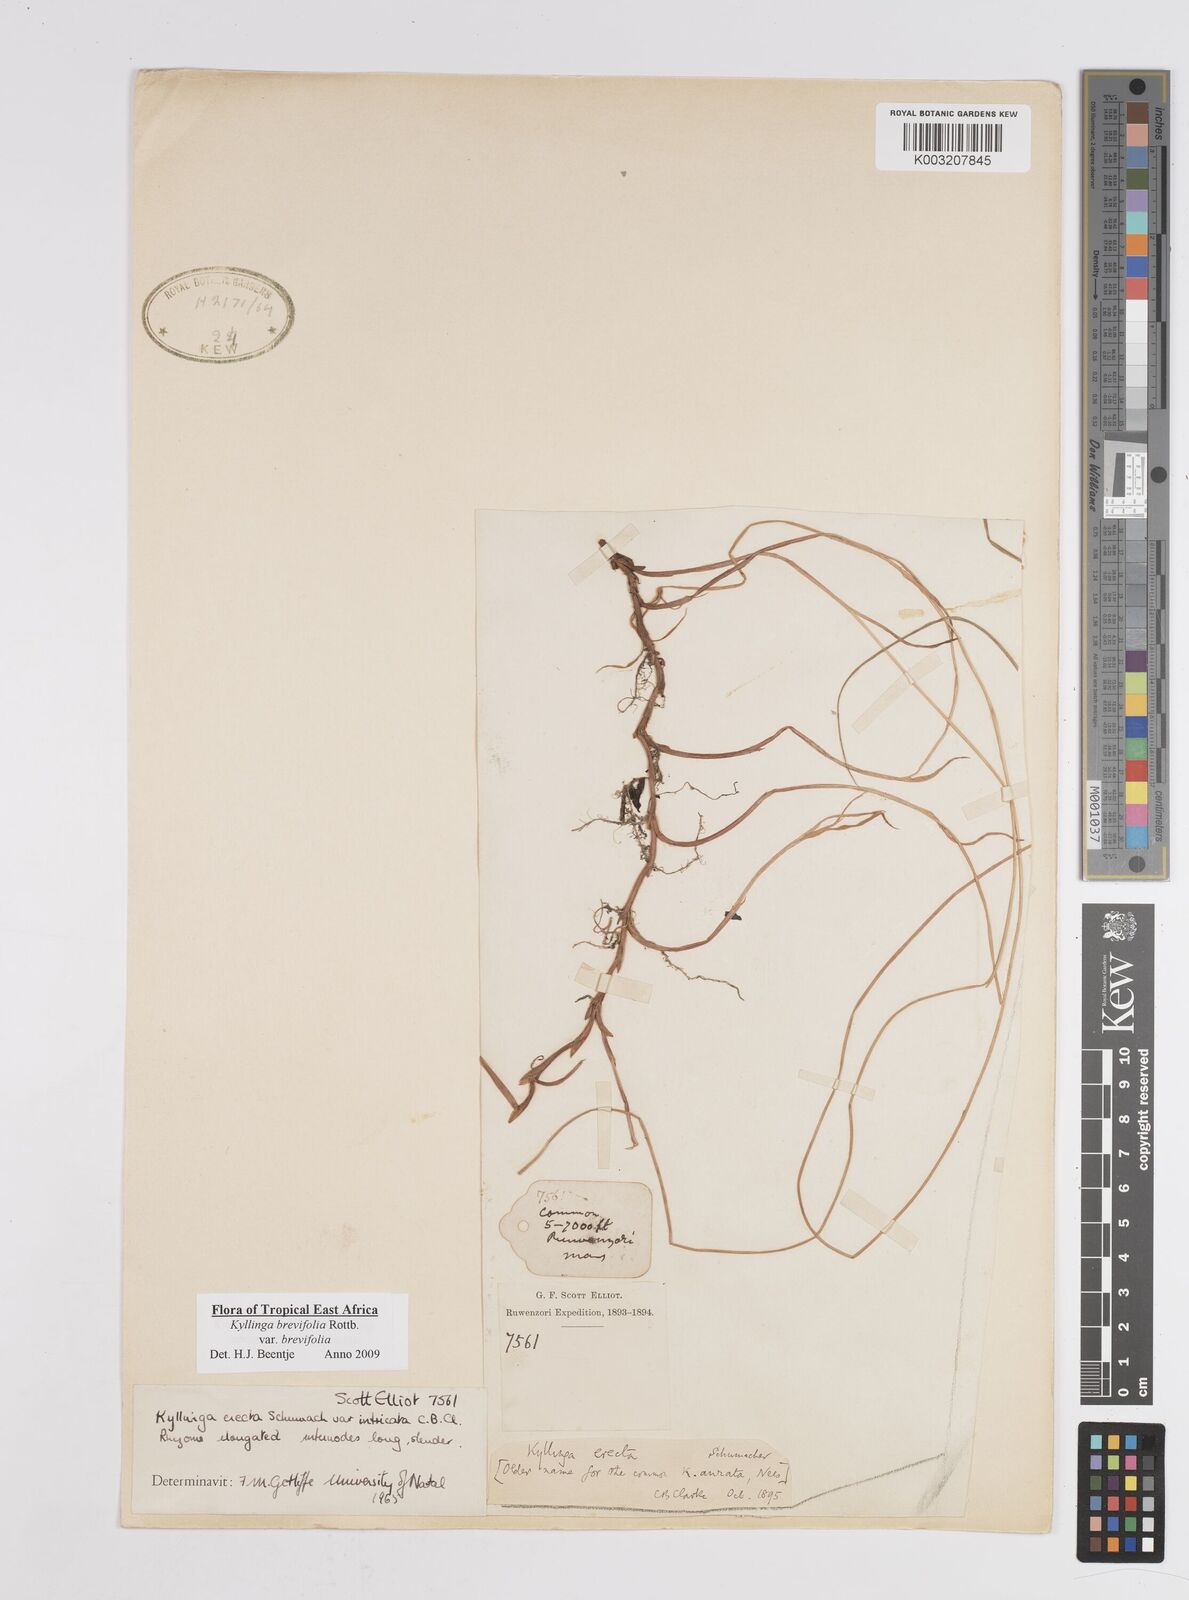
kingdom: Plantae
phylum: Tracheophyta
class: Liliopsida
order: Poales
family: Cyperaceae
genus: Cyperus
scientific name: Cyperus erectus
